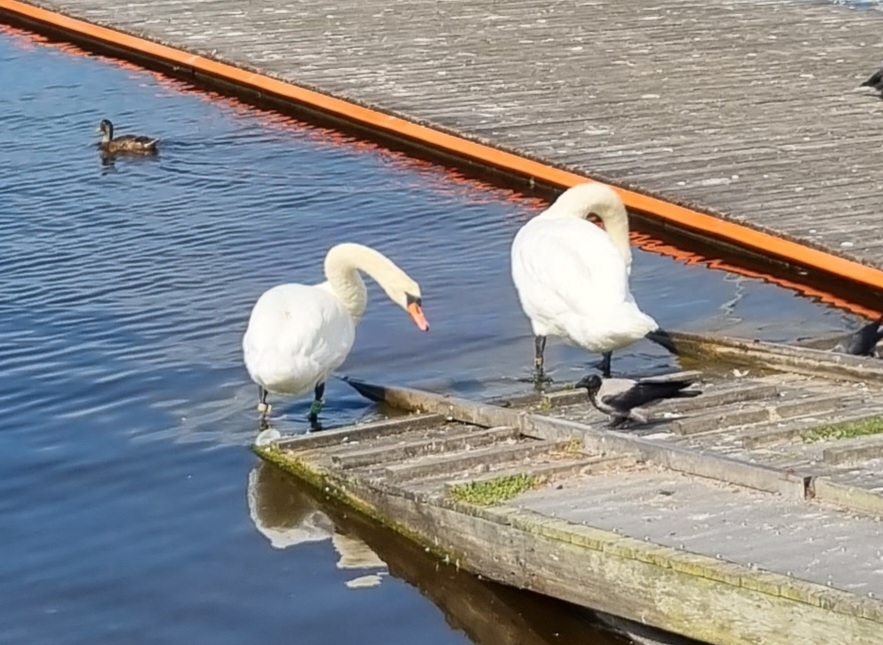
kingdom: Animalia
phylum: Chordata
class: Aves
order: Anseriformes
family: Anatidae
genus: Cygnus
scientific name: Cygnus olor
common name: Knopsvane
